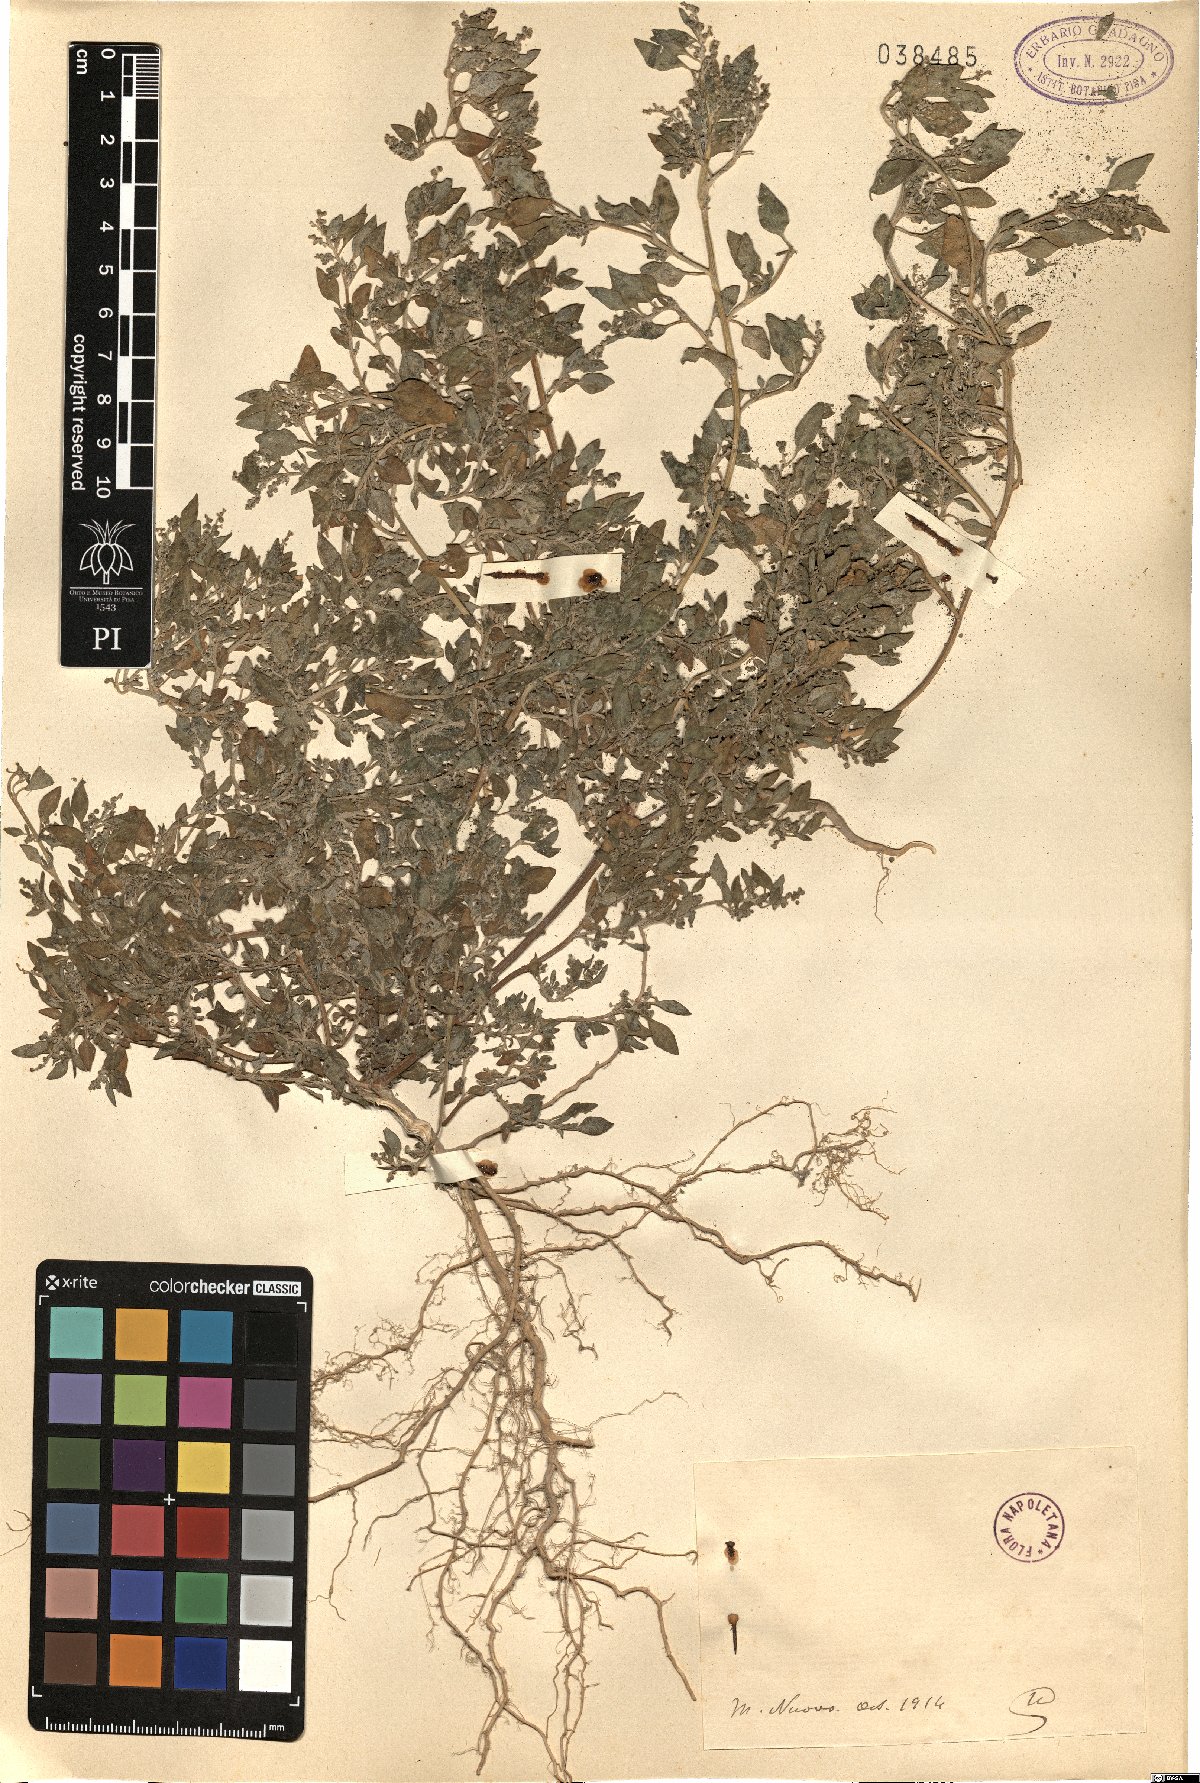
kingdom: Plantae
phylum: Tracheophyta
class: Magnoliopsida
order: Caryophyllales
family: Amaranthaceae
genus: Dysphania
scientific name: Dysphania
